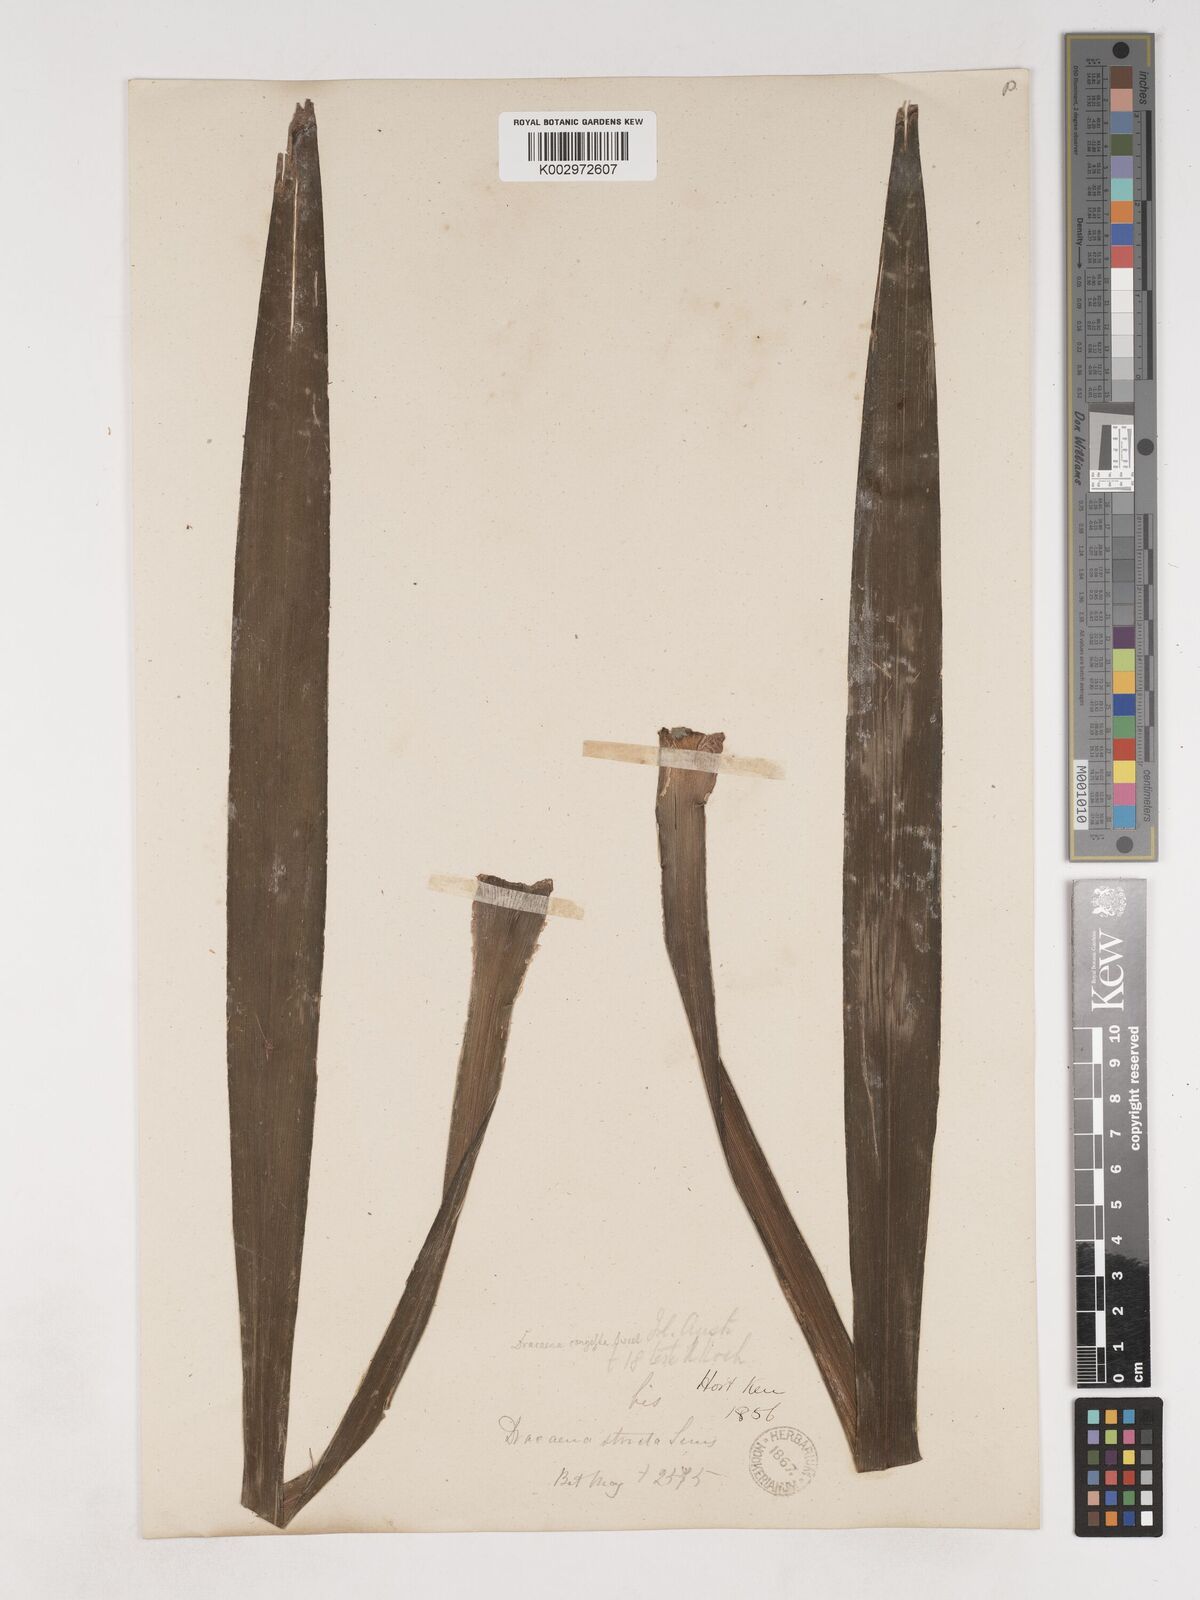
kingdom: Plantae
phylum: Tracheophyta
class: Liliopsida
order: Asparagales
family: Asparagaceae
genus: Cordyline
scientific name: Cordyline stricta
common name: Narrow-leaf palm-lily
